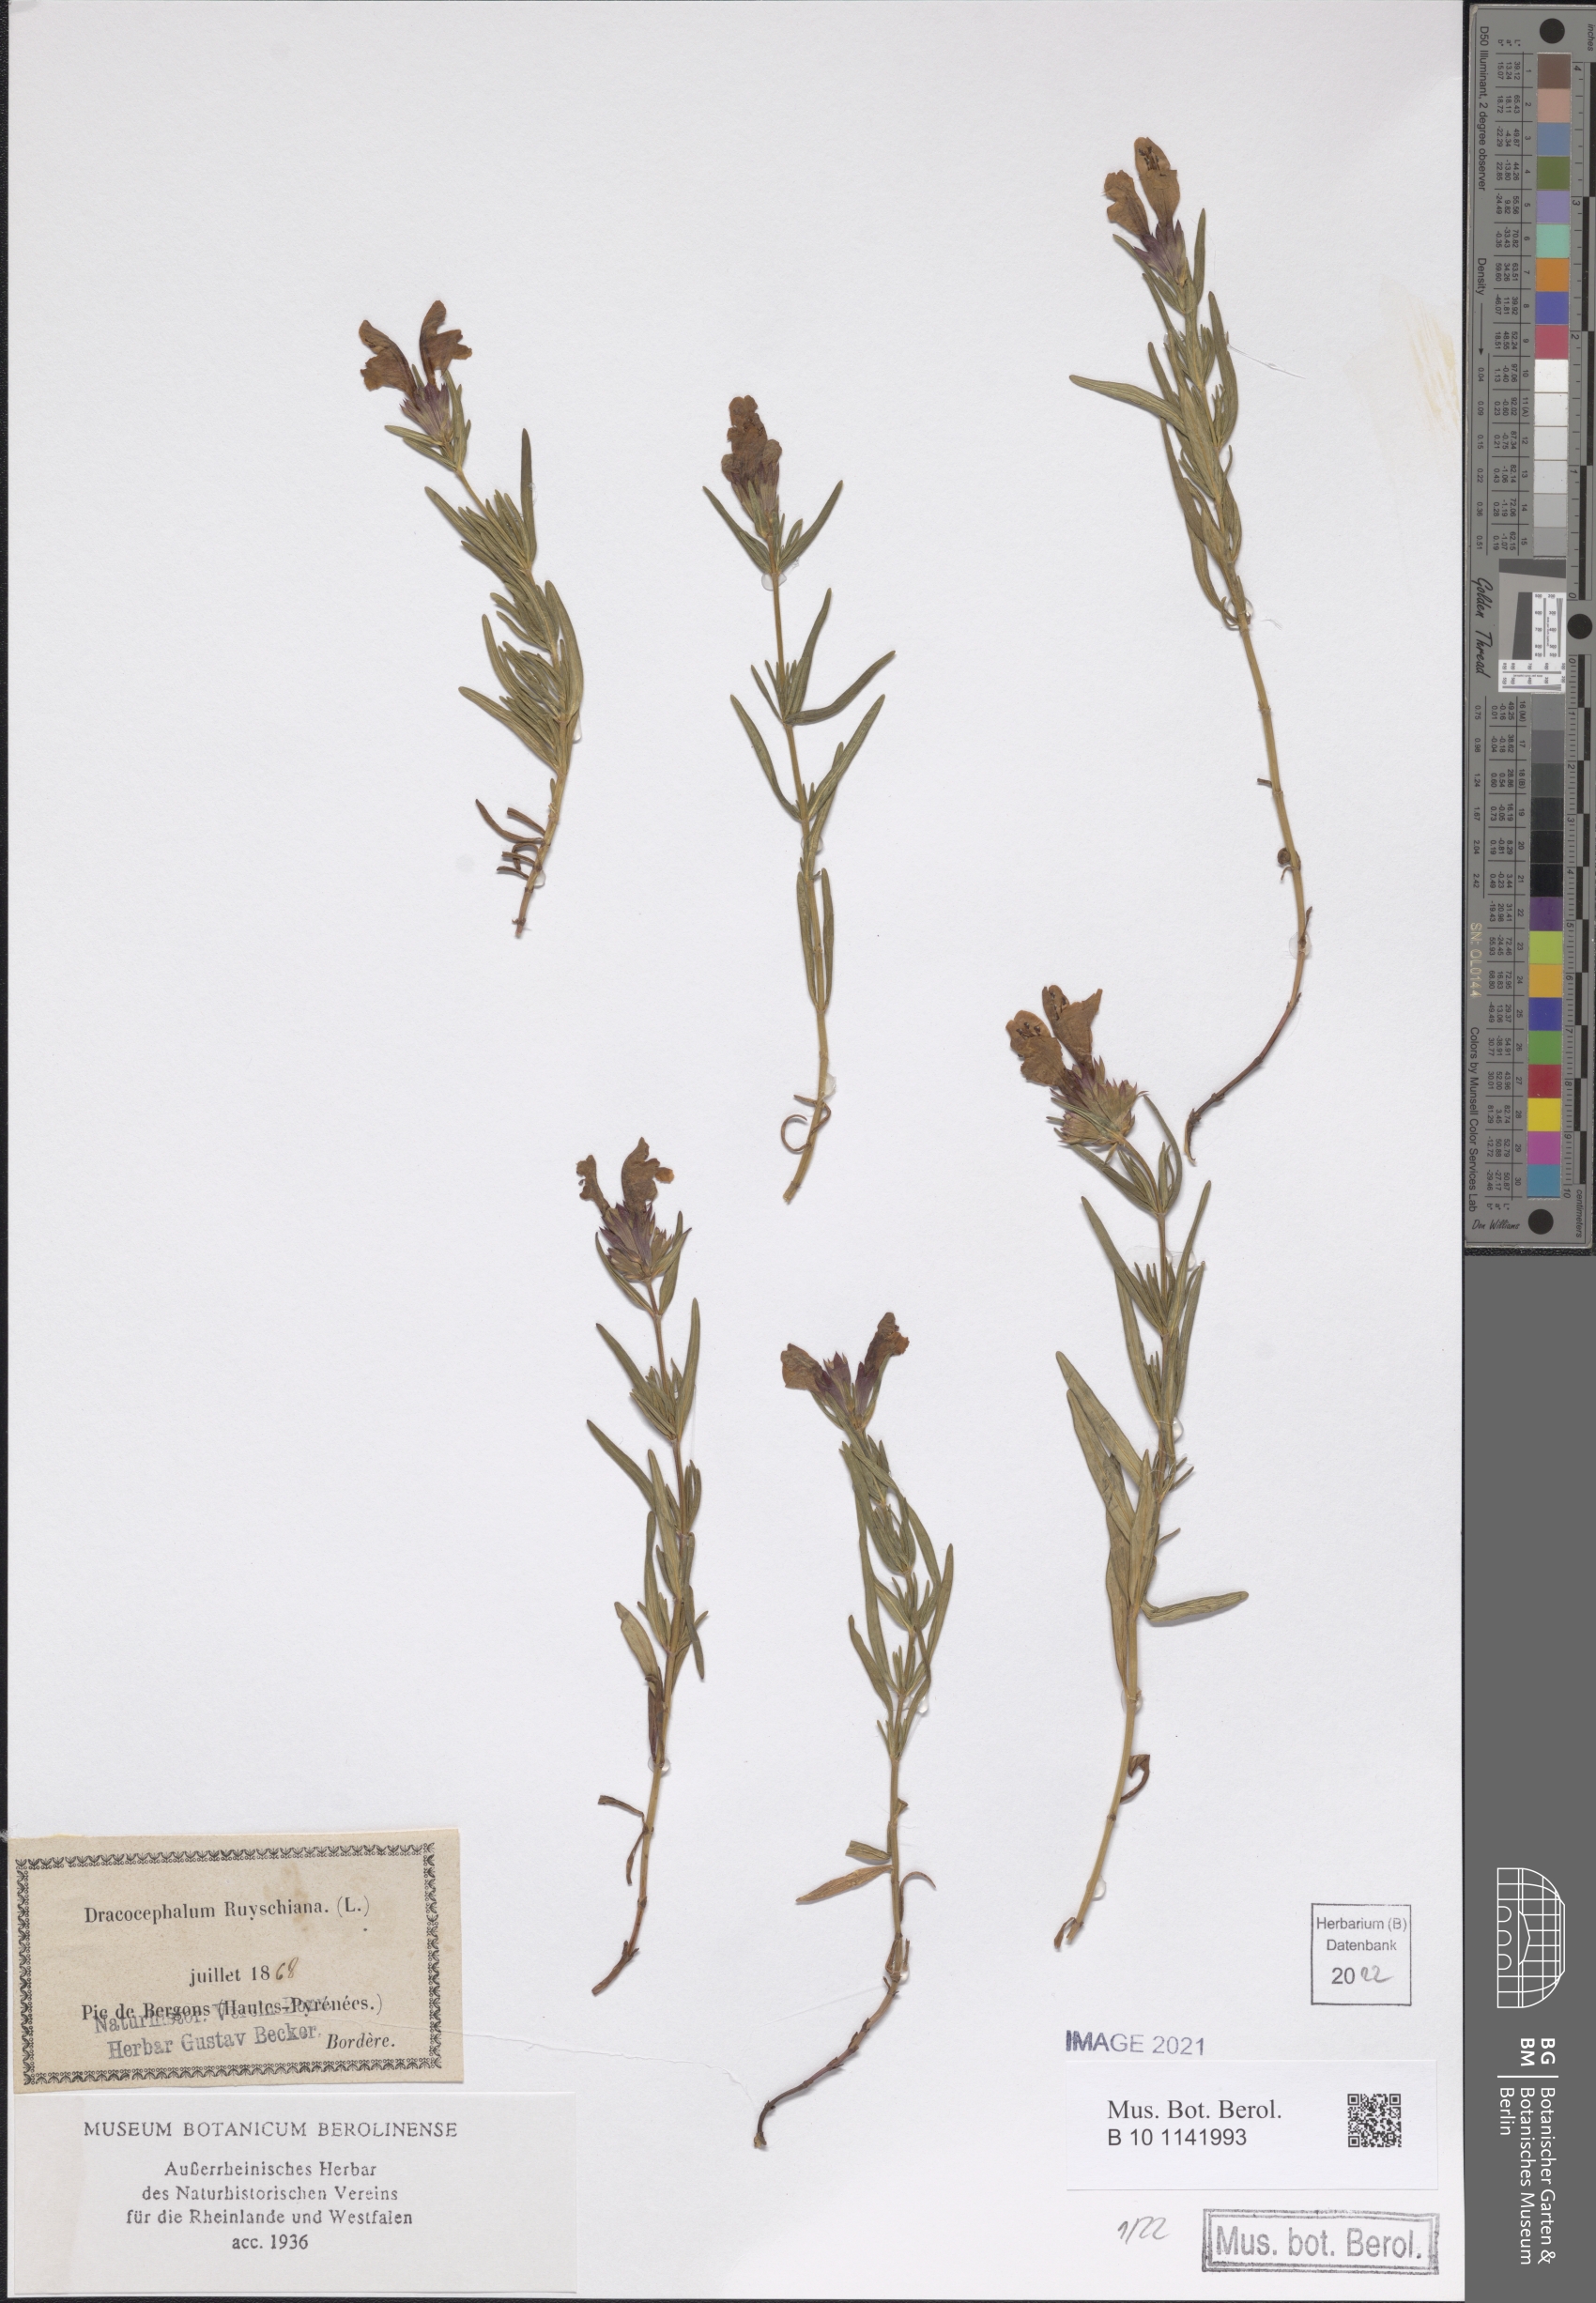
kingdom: Plantae
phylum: Tracheophyta
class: Magnoliopsida
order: Lamiales
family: Lamiaceae
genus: Dracocephalum
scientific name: Dracocephalum ruyschiana
